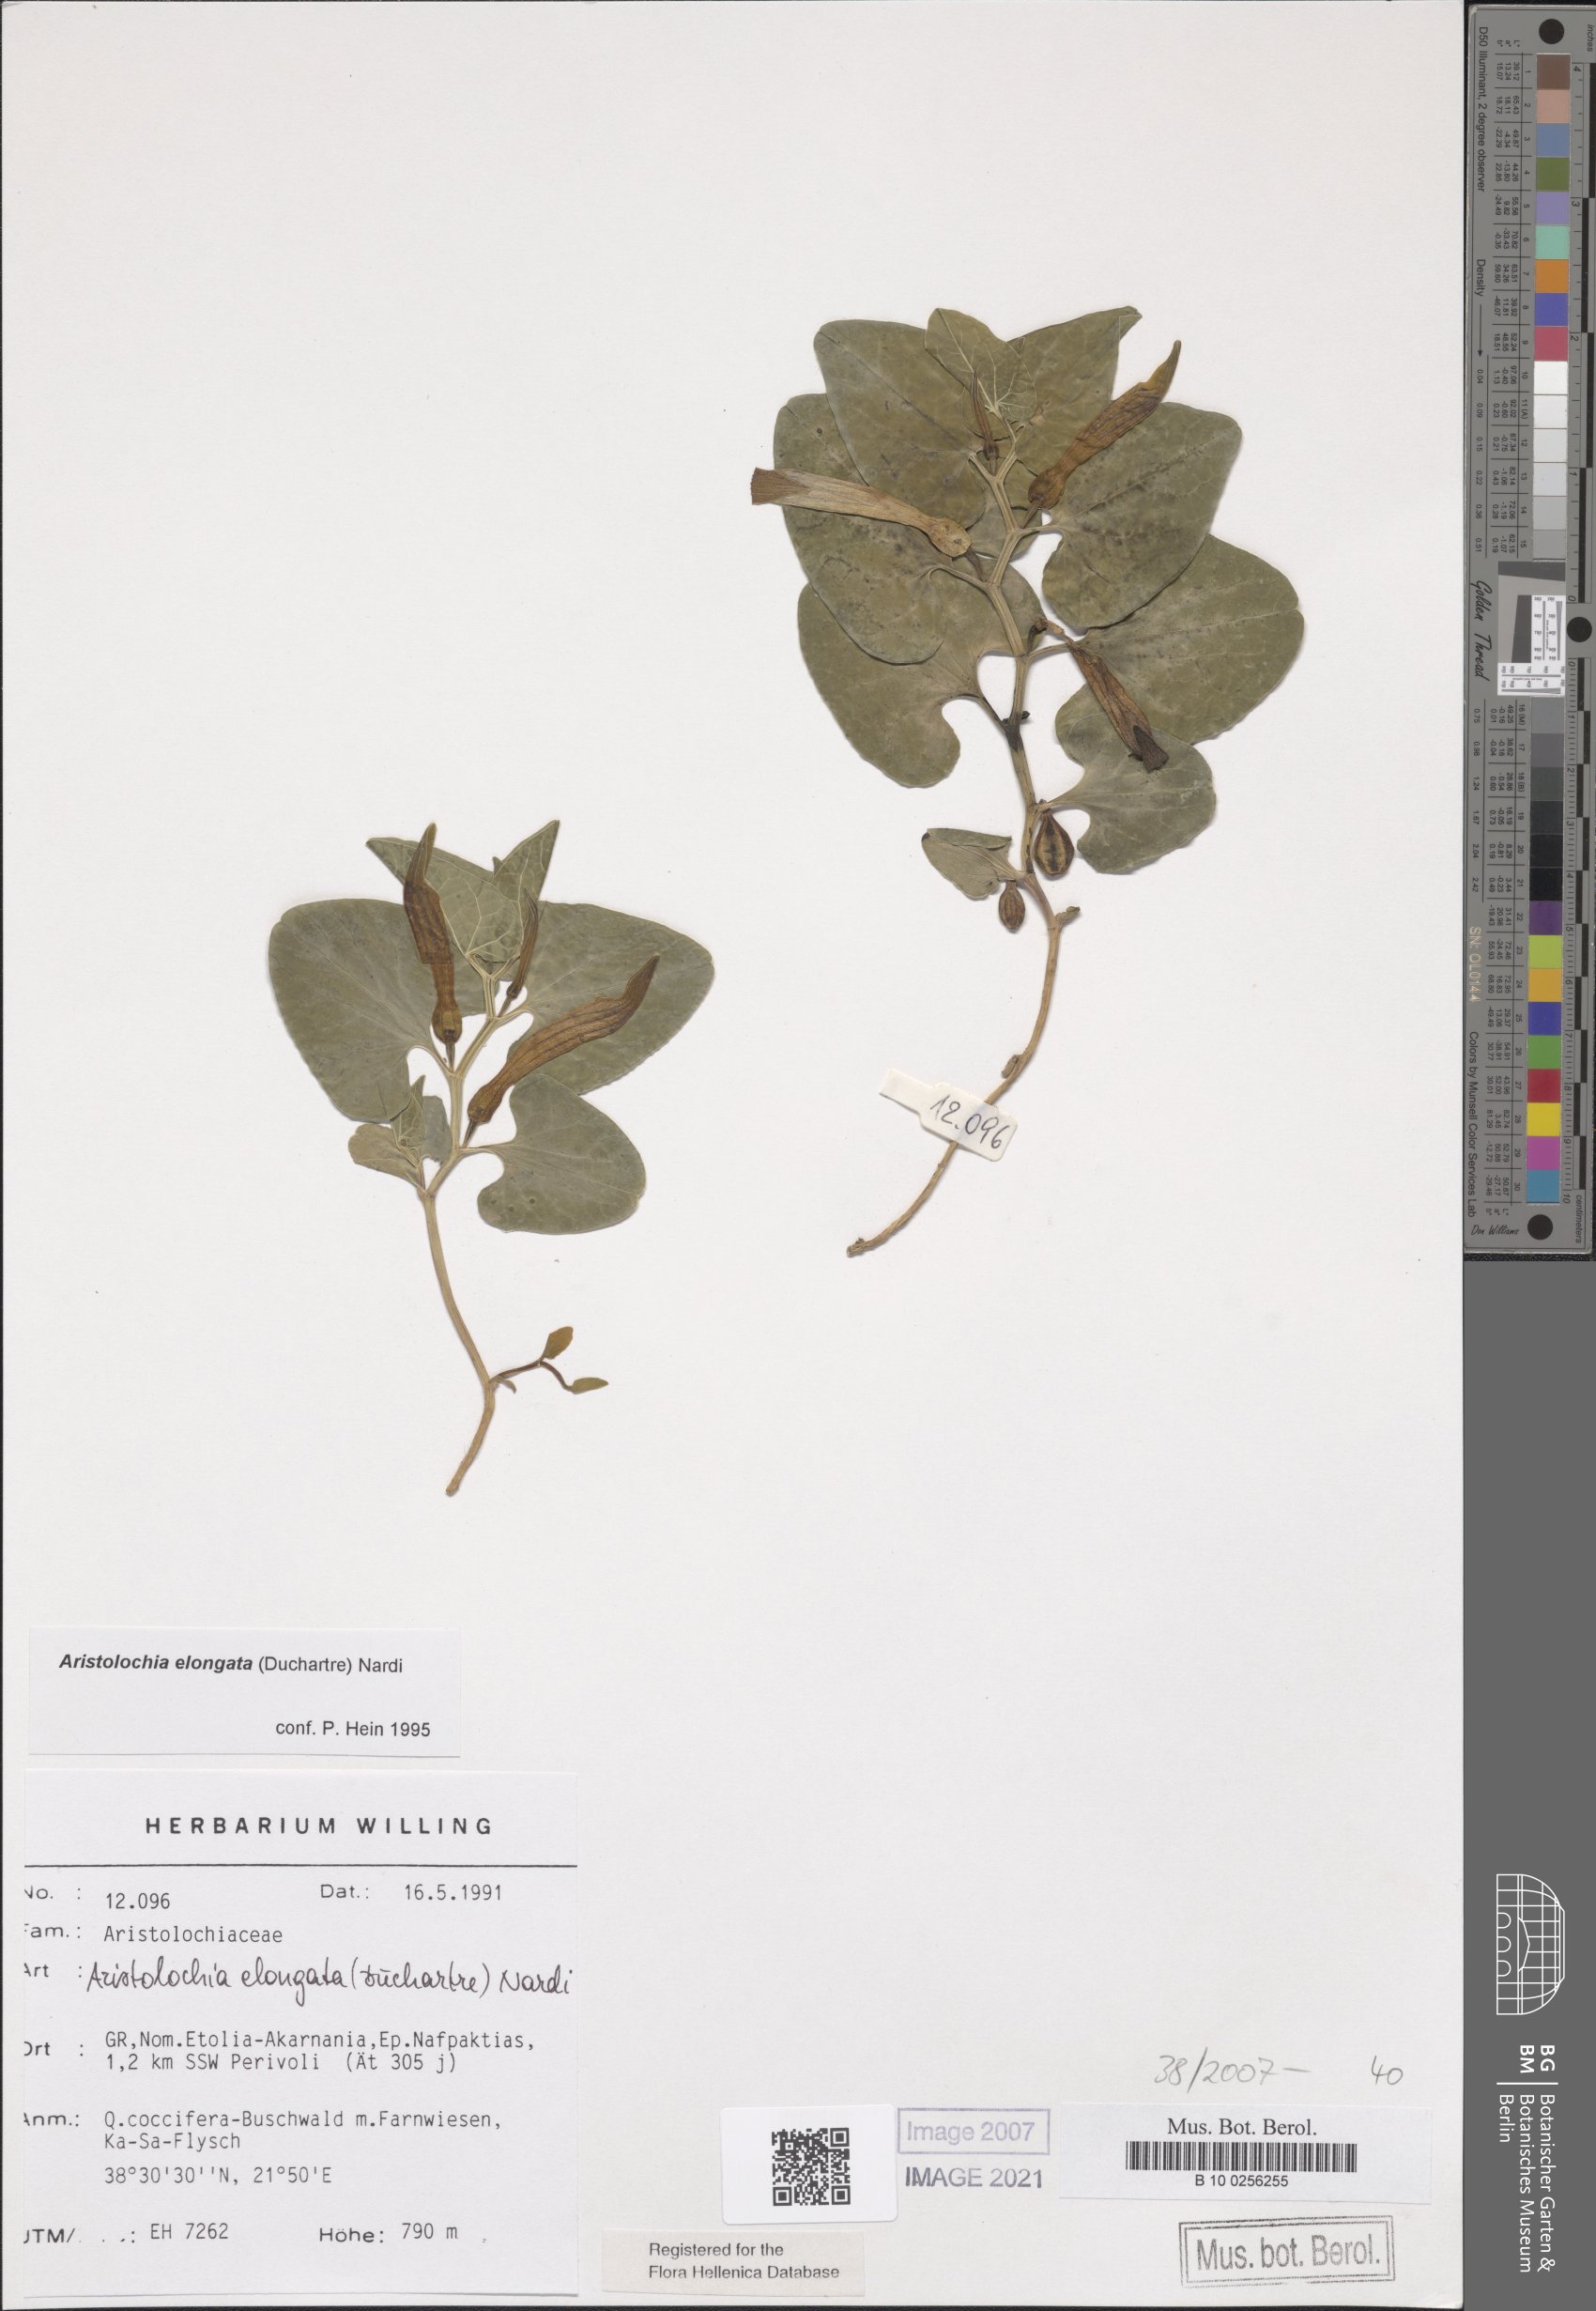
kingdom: Plantae
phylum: Tracheophyta
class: Magnoliopsida
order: Piperales
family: Aristolochiaceae
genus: Aristolochia
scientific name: Aristolochia nardiana
